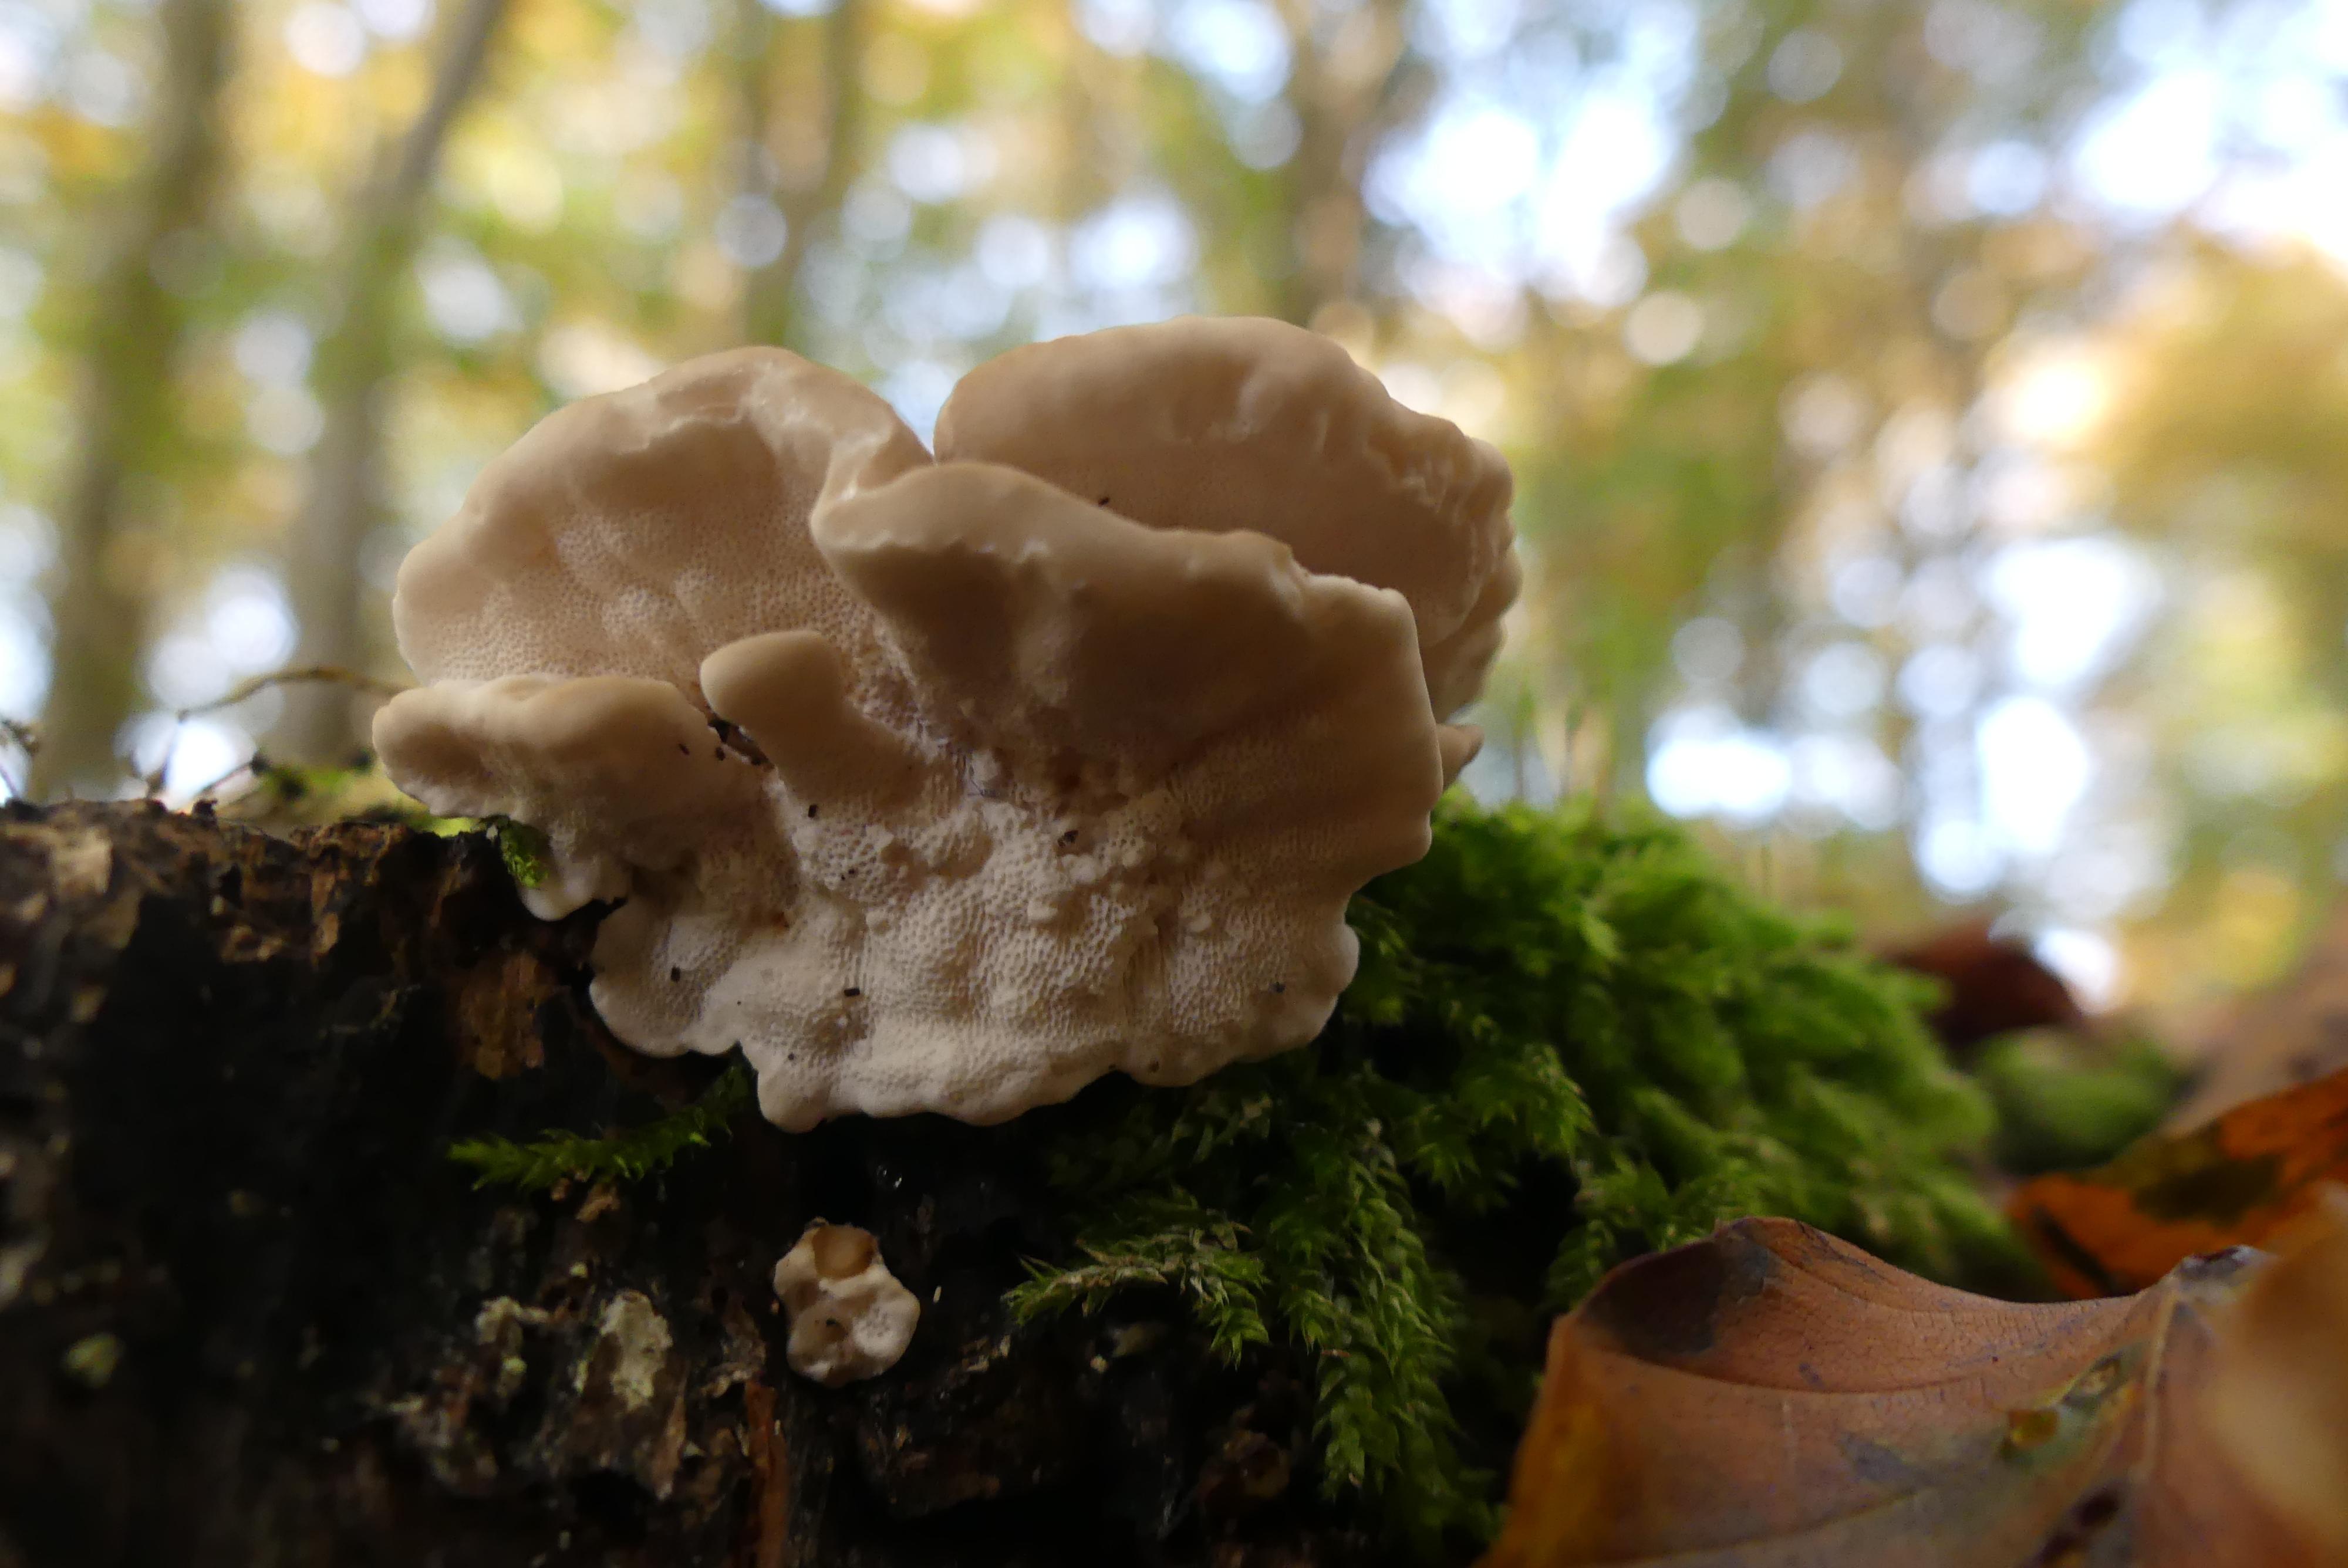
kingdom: Fungi
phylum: Basidiomycota
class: Agaricomycetes
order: Polyporales
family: Polyporaceae
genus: Trametes
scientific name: Trametes versicolor
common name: broget læderporesvamp
